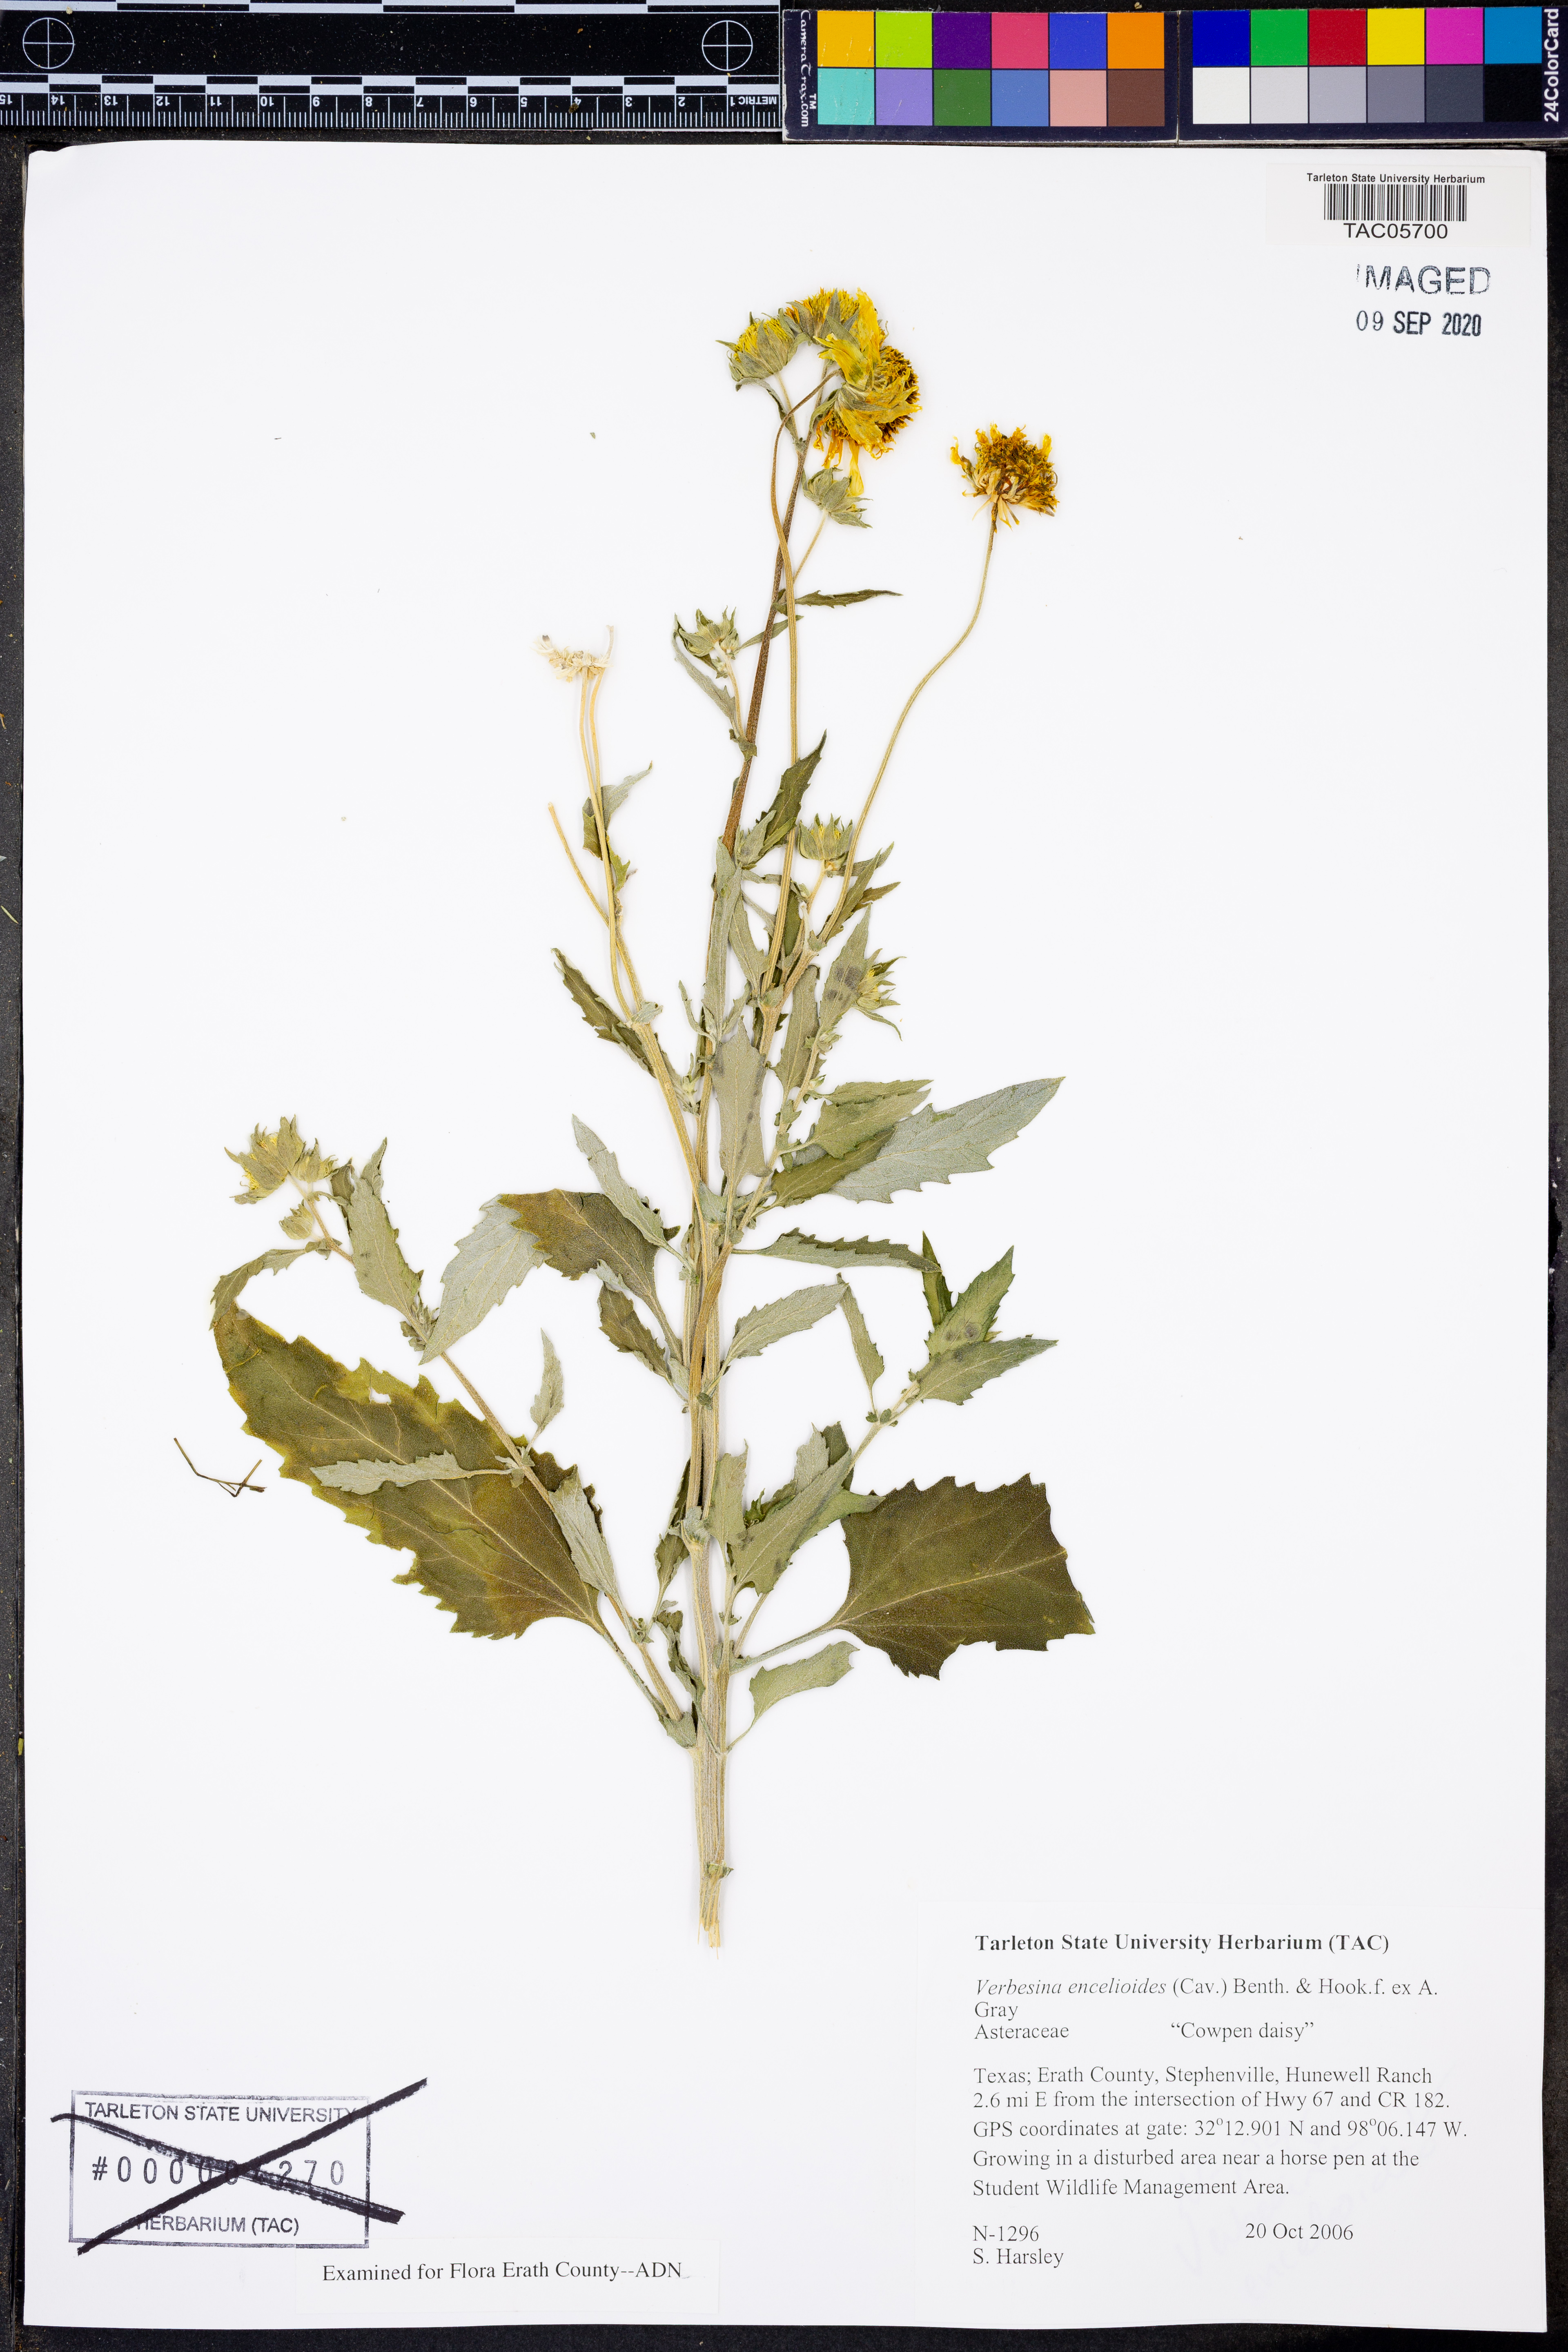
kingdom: Plantae
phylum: Tracheophyta
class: Magnoliopsida
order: Asterales
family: Asteraceae
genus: Verbesina
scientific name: Verbesina encelioides
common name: Golden crownbeard
